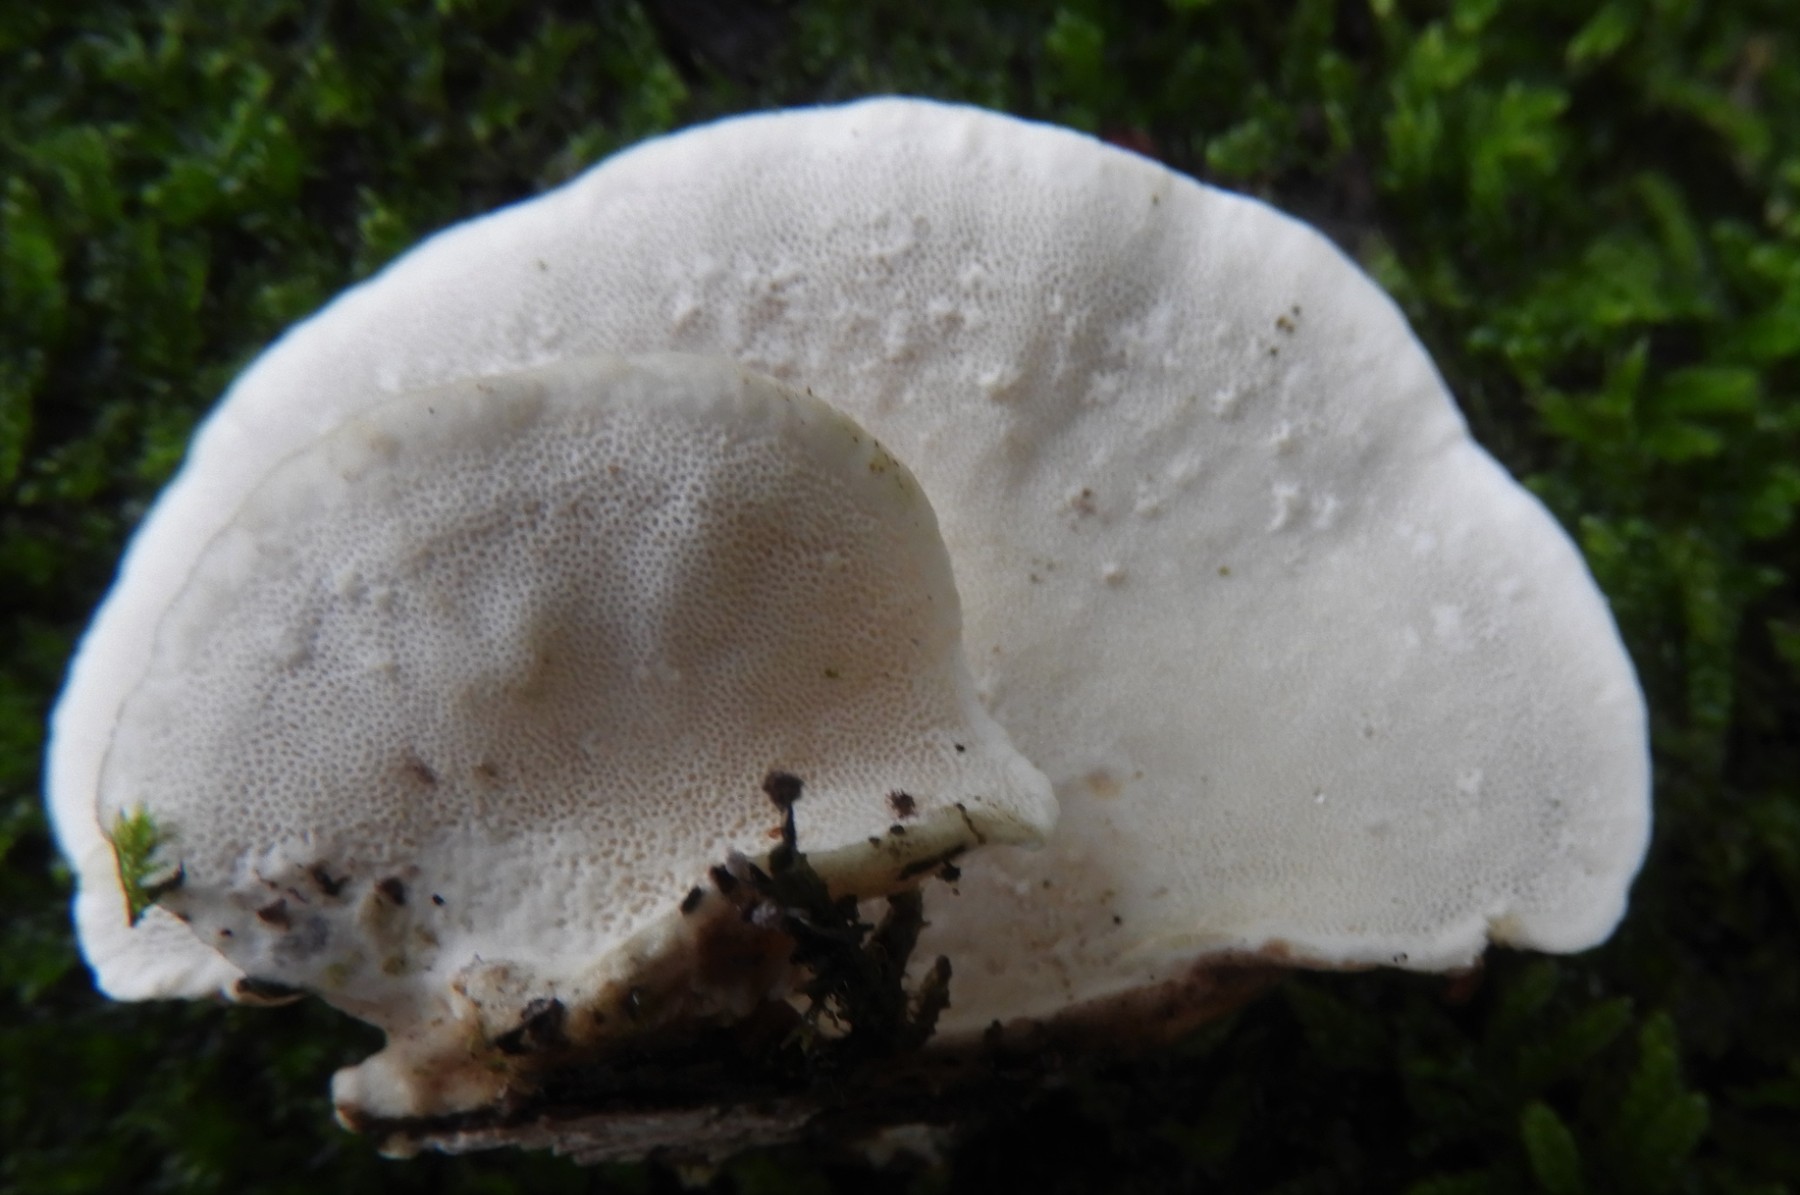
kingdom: Fungi
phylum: Basidiomycota
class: Agaricomycetes
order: Polyporales
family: Polyporaceae
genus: Trametes
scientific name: Trametes ochracea
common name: bæltet læderporesvamp
